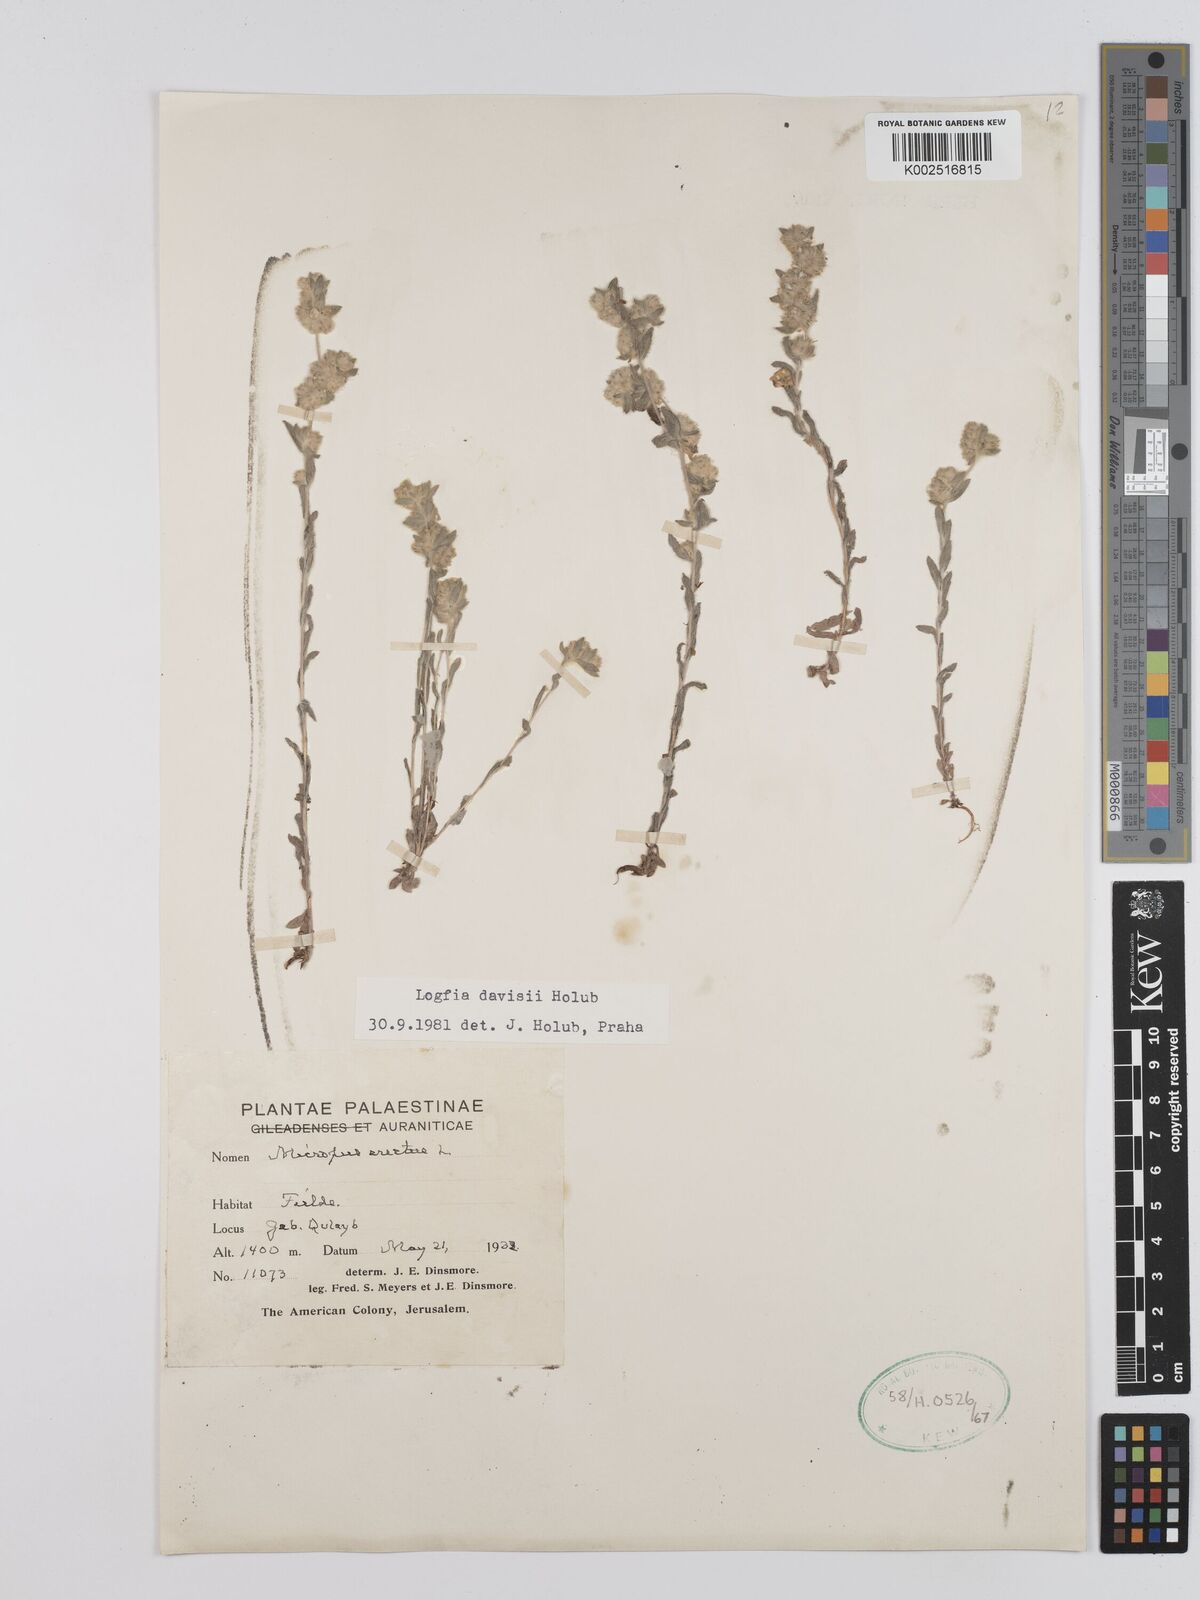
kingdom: Plantae
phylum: Tracheophyta
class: Magnoliopsida
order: Asterales
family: Asteraceae
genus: Filago
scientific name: Filago arvensis
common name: Field cudweed
